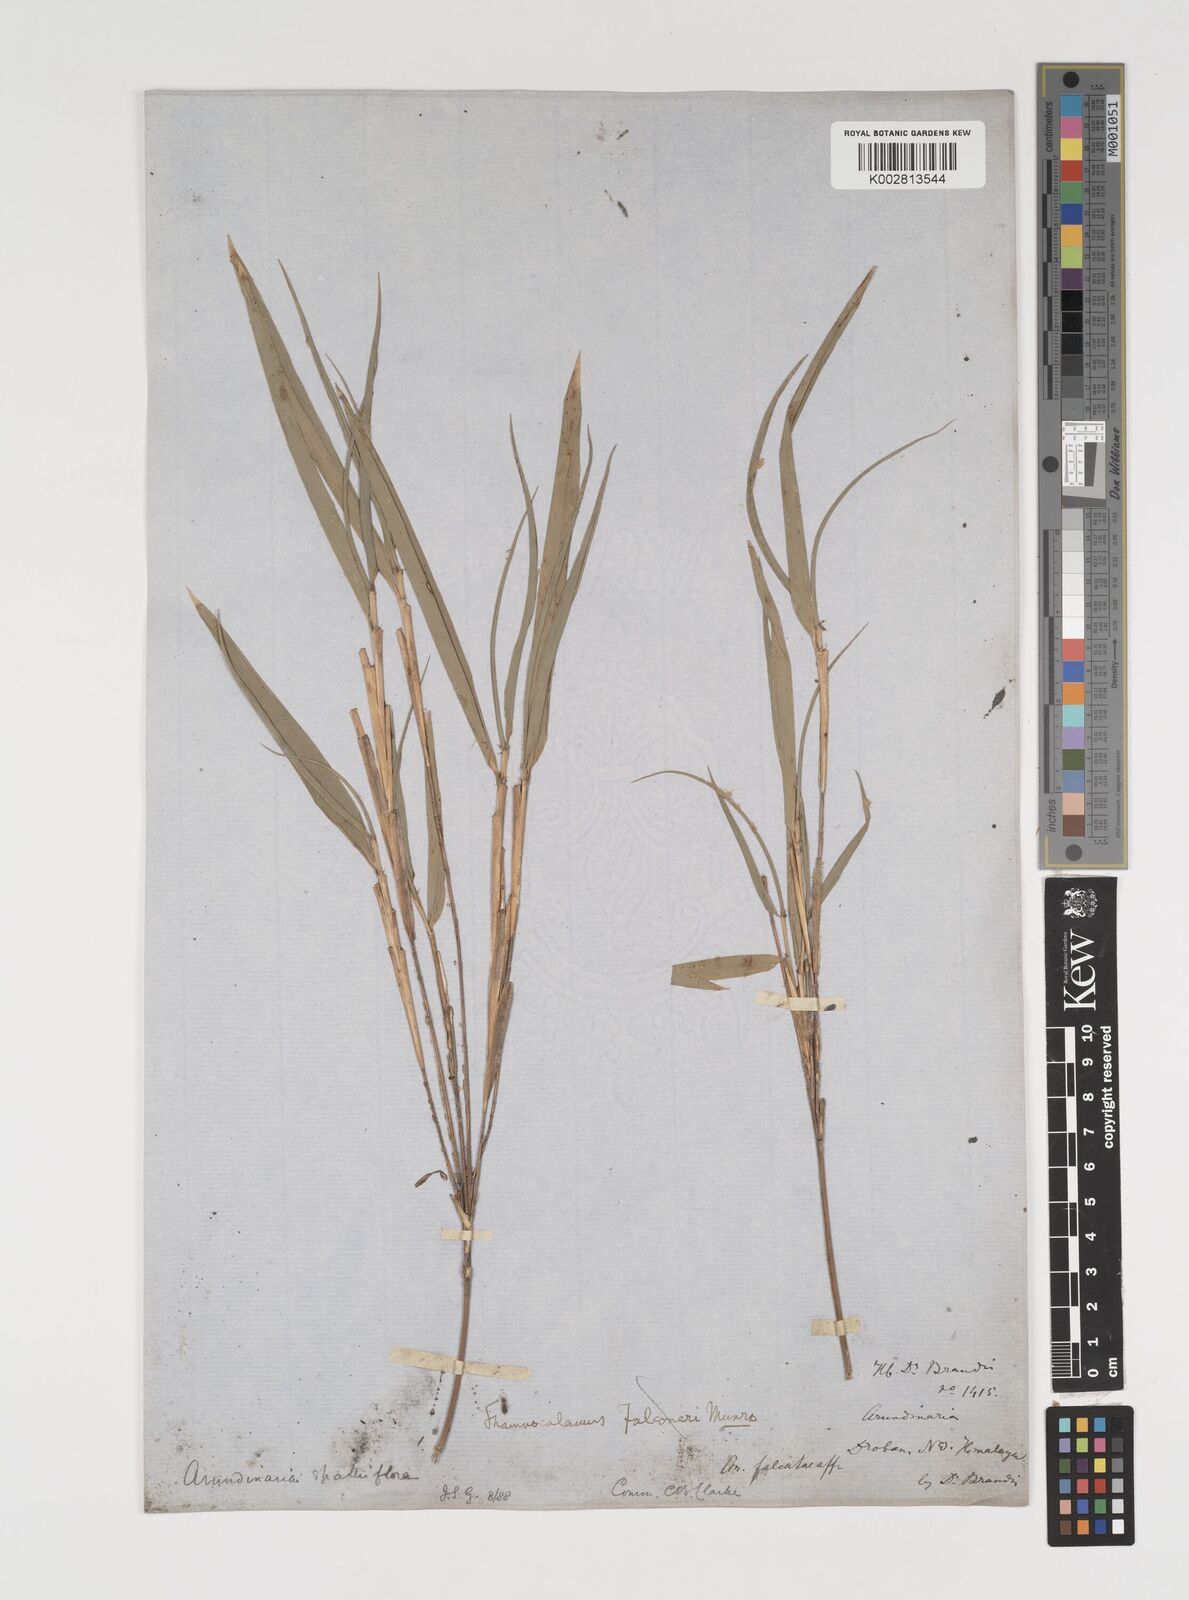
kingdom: Plantae
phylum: Tracheophyta
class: Liliopsida
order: Poales
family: Poaceae
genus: Thamnocalamus
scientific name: Thamnocalamus spathiflorus
